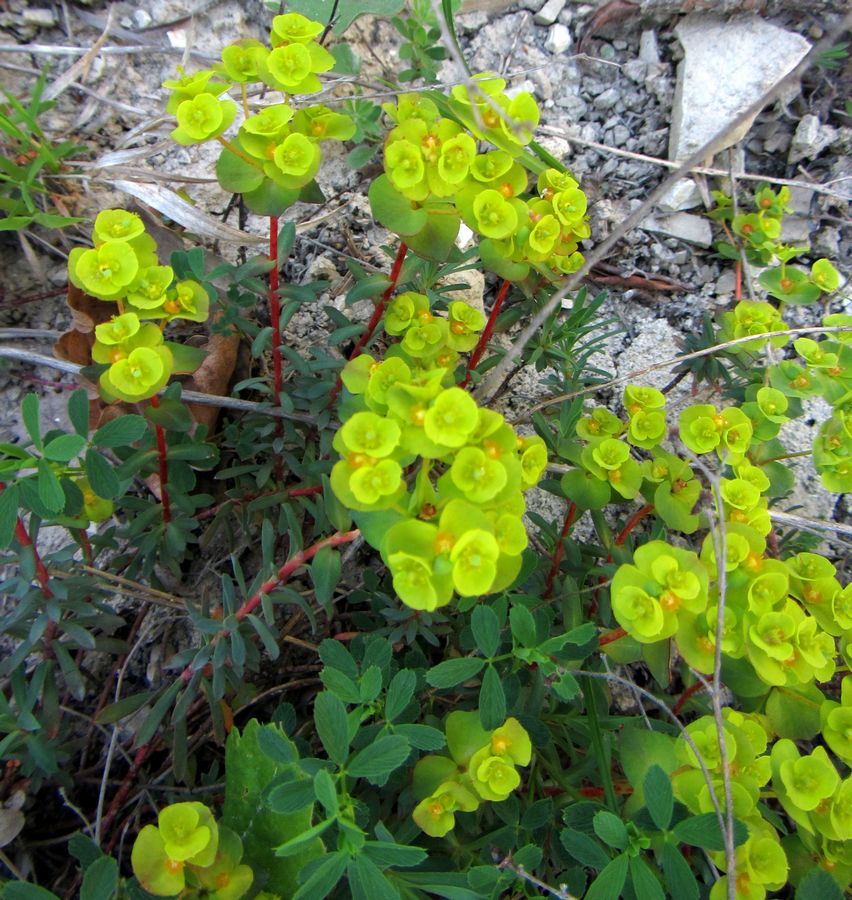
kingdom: Plantae
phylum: Tracheophyta
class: Magnoliopsida
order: Malpighiales
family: Euphorbiaceae
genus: Euphorbia
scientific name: Euphorbia
